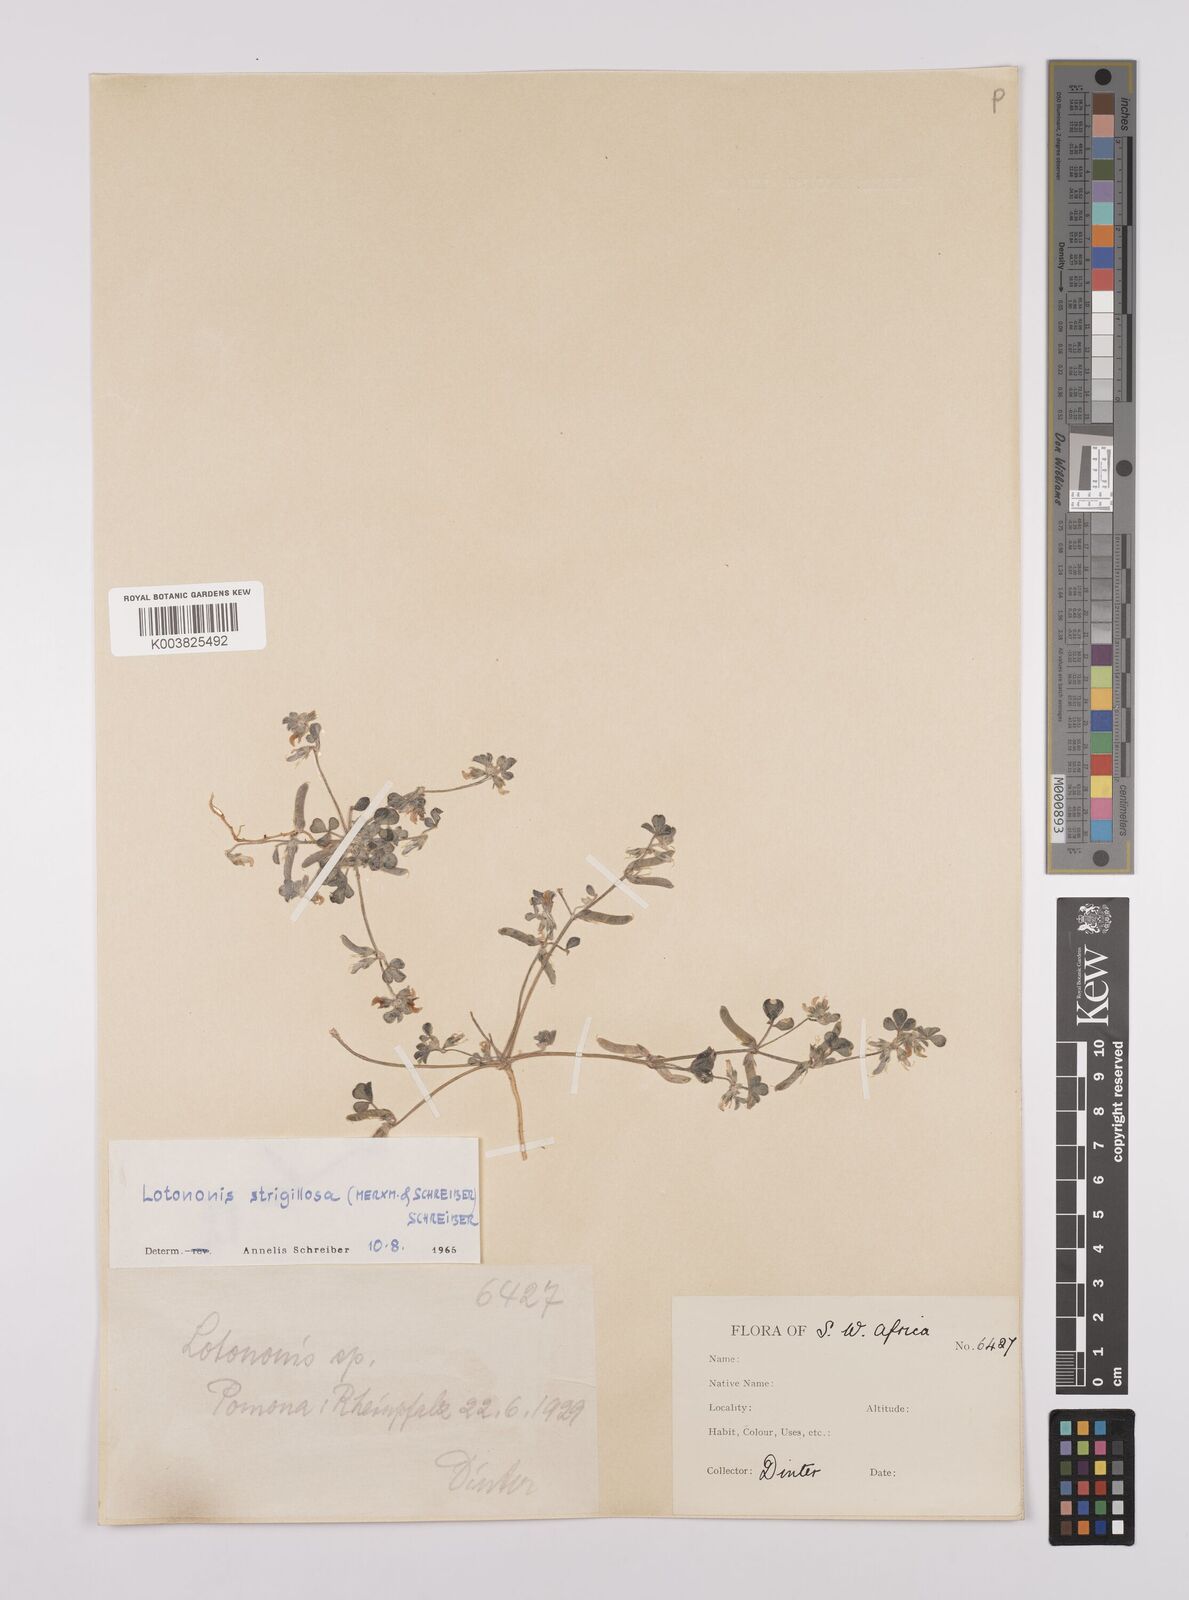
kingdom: Plantae
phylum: Tracheophyta
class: Magnoliopsida
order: Fabales
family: Fabaceae
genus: Lotononis
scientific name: Lotononis strigillosa
